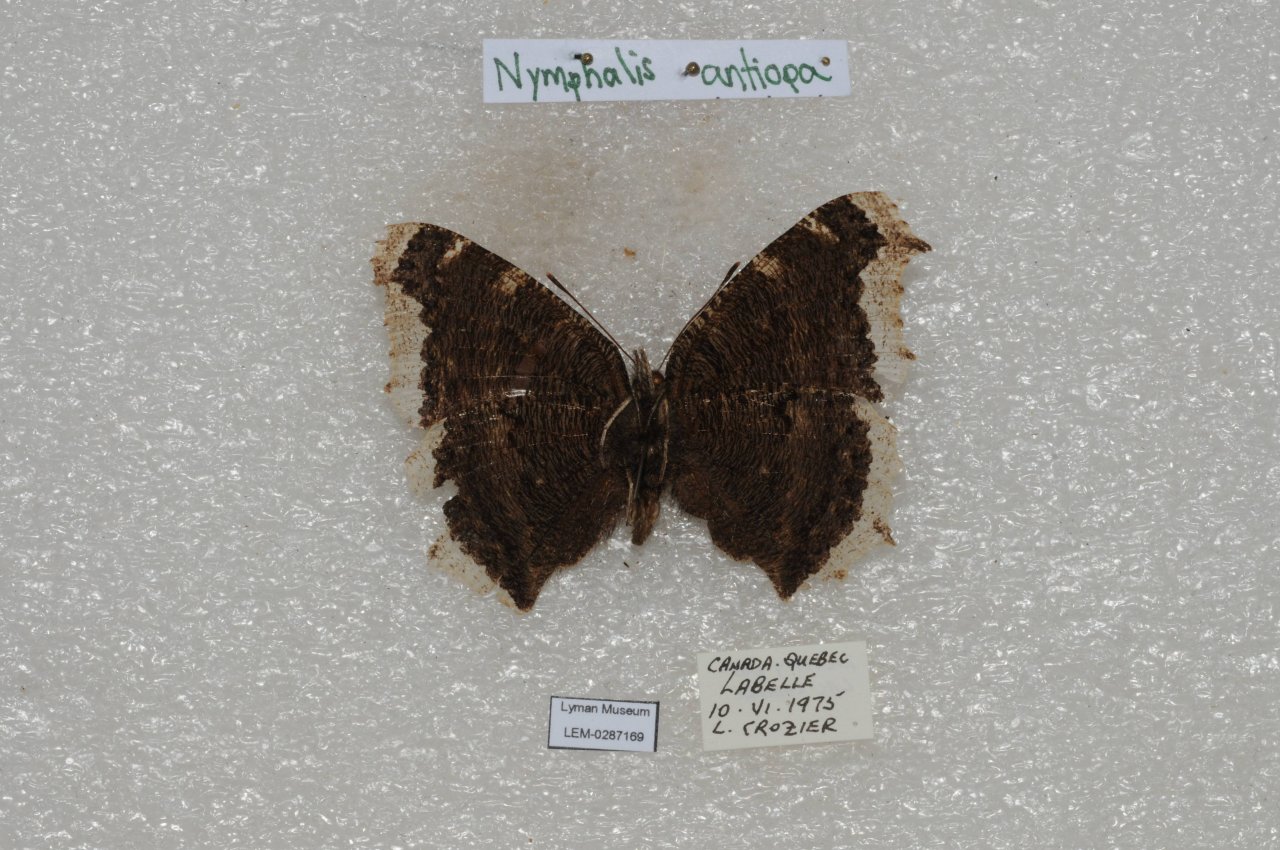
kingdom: Animalia
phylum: Arthropoda
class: Insecta
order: Lepidoptera
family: Nymphalidae
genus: Nymphalis
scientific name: Nymphalis antiopa
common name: Mourning Cloak
